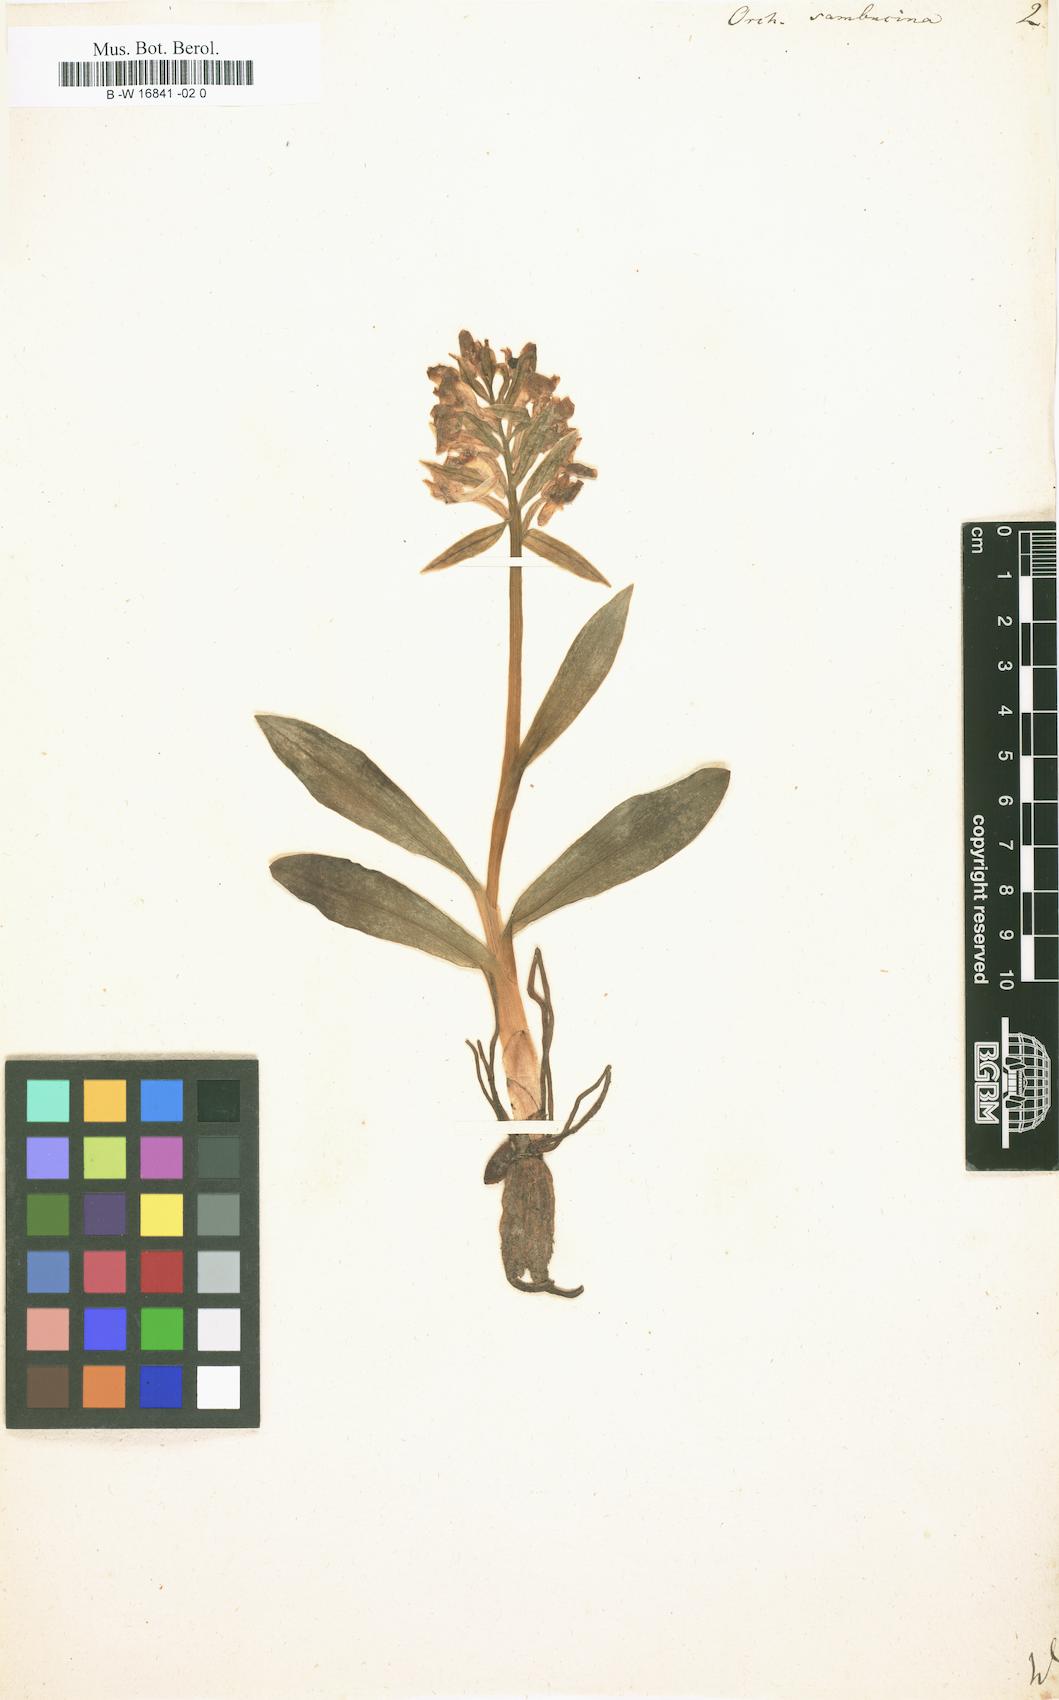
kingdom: Plantae
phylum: Tracheophyta
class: Liliopsida
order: Asparagales
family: Orchidaceae
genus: Dactylorhiza
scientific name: Dactylorhiza sambucina
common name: Elder-flowered orchid
